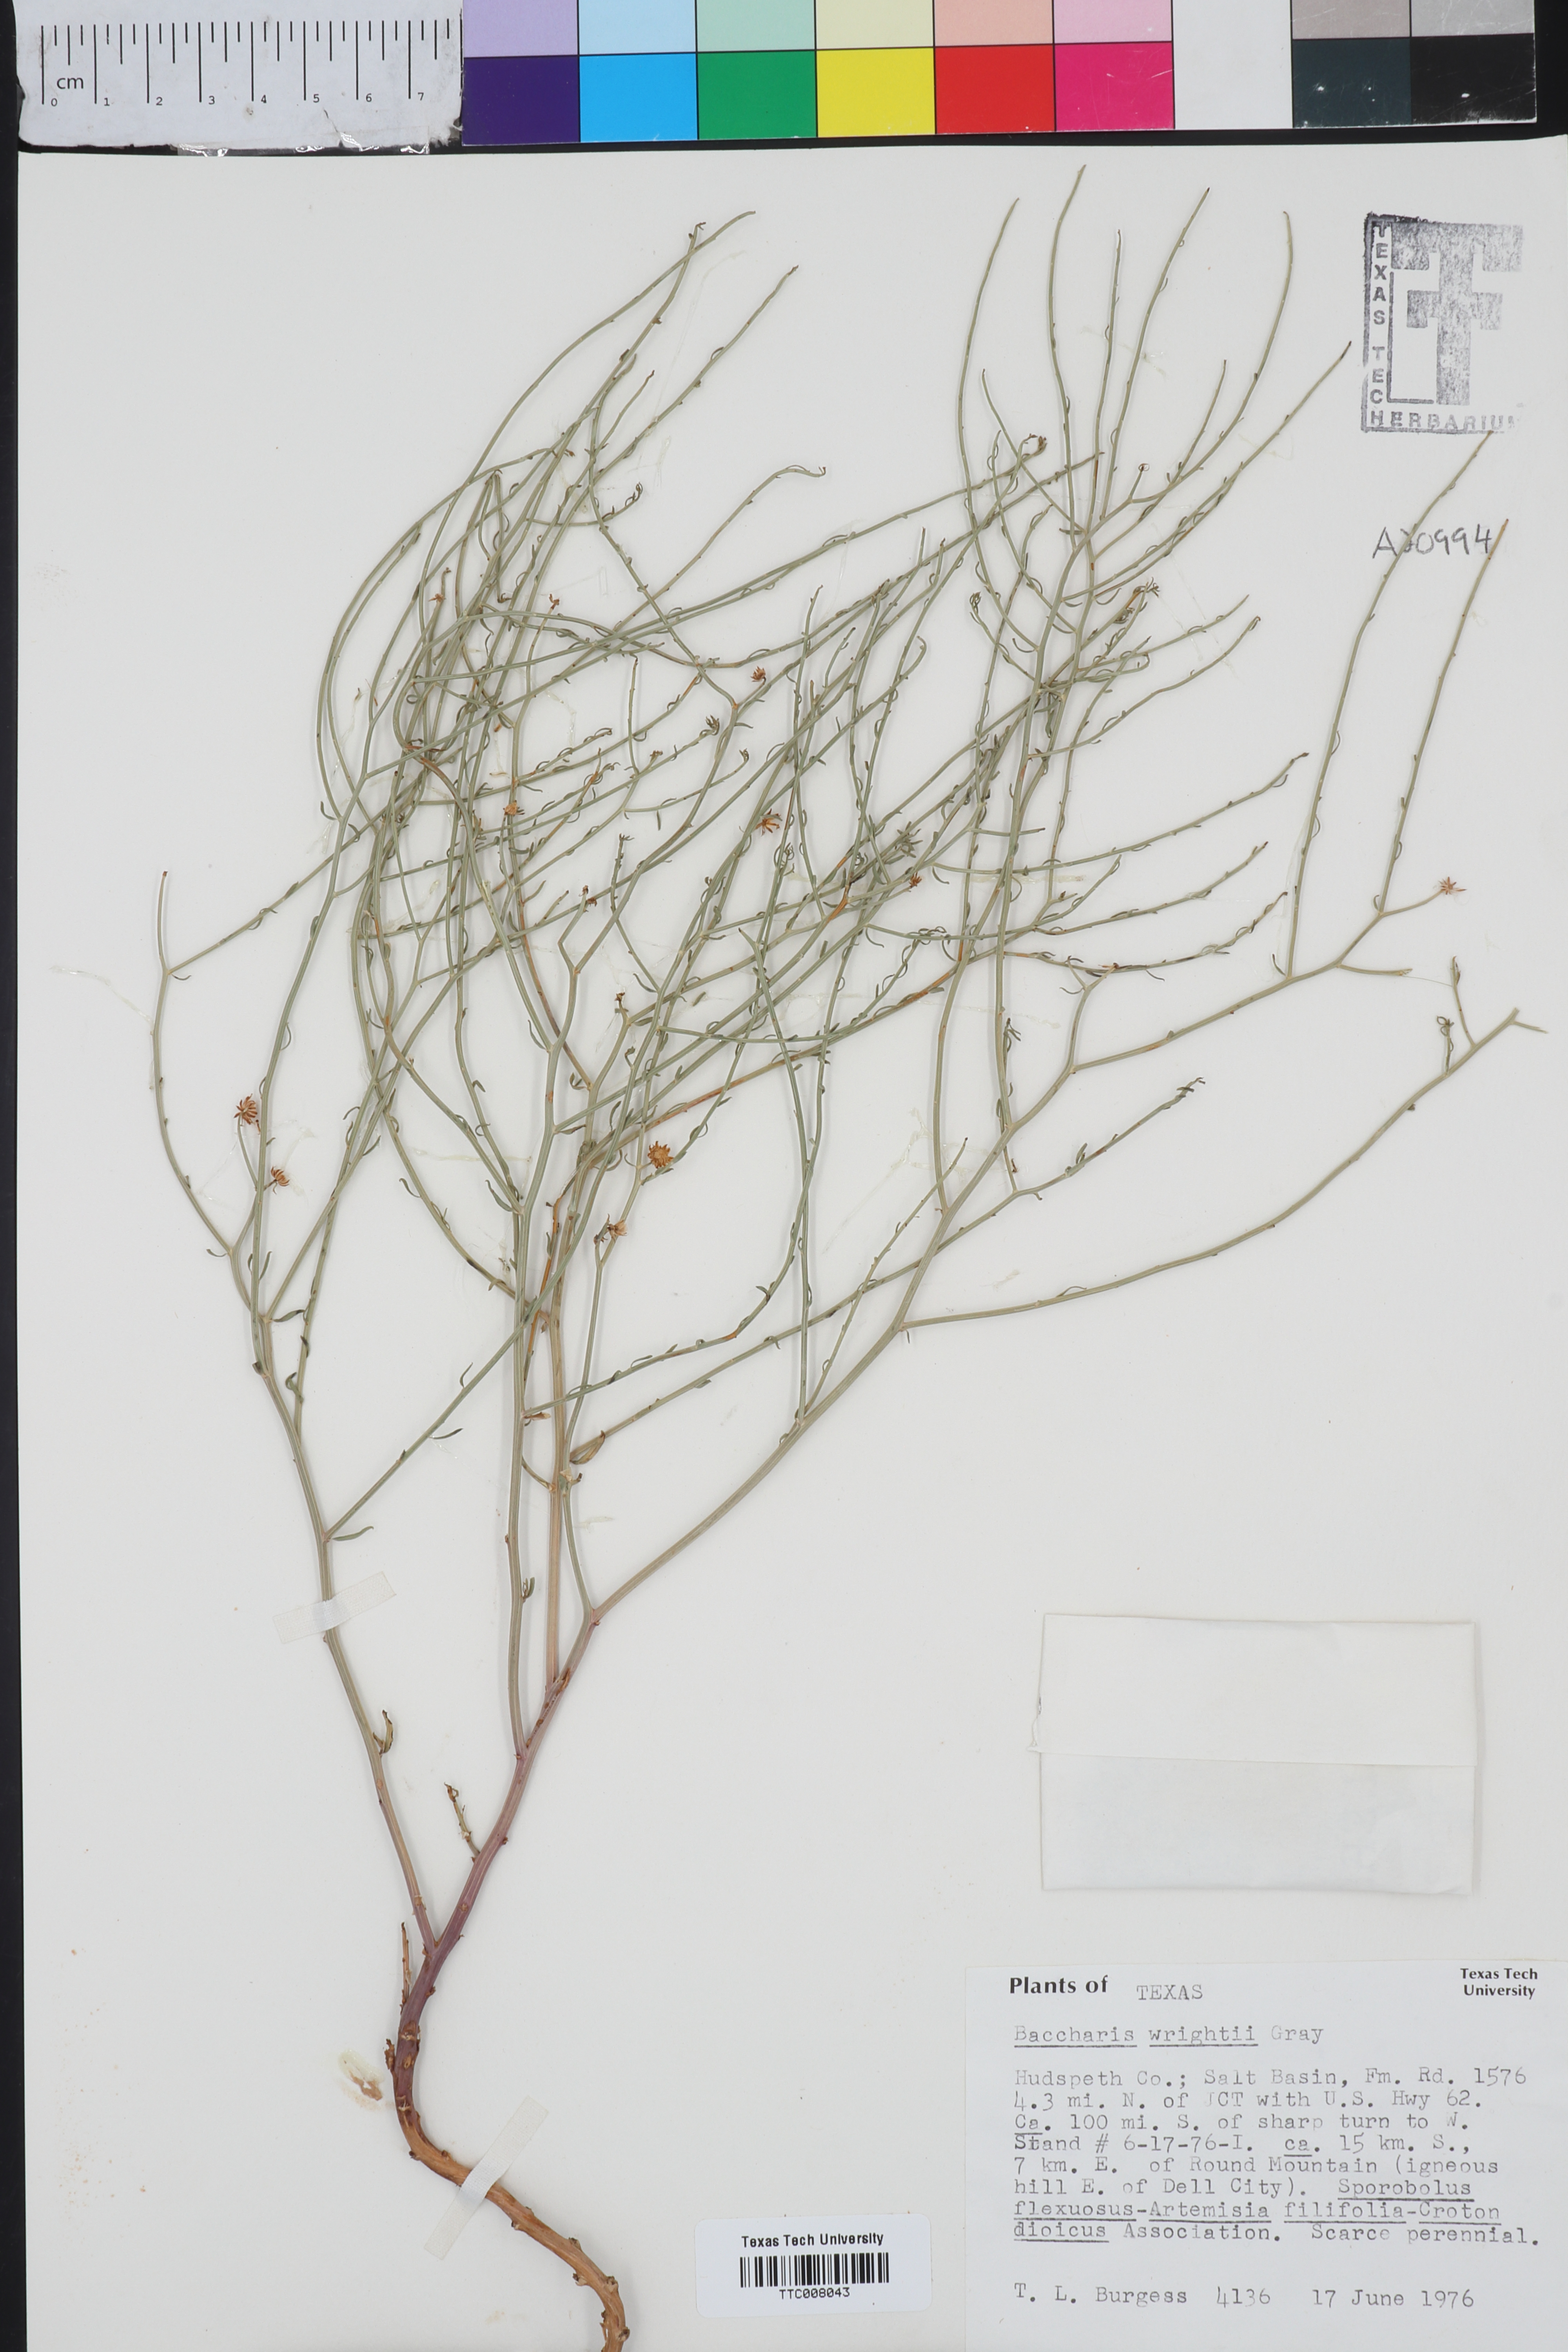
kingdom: Plantae
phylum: Tracheophyta
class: Magnoliopsida
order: Asterales
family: Asteraceae
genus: Baccharis
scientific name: Baccharis wrightii
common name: Wright's baccharis
